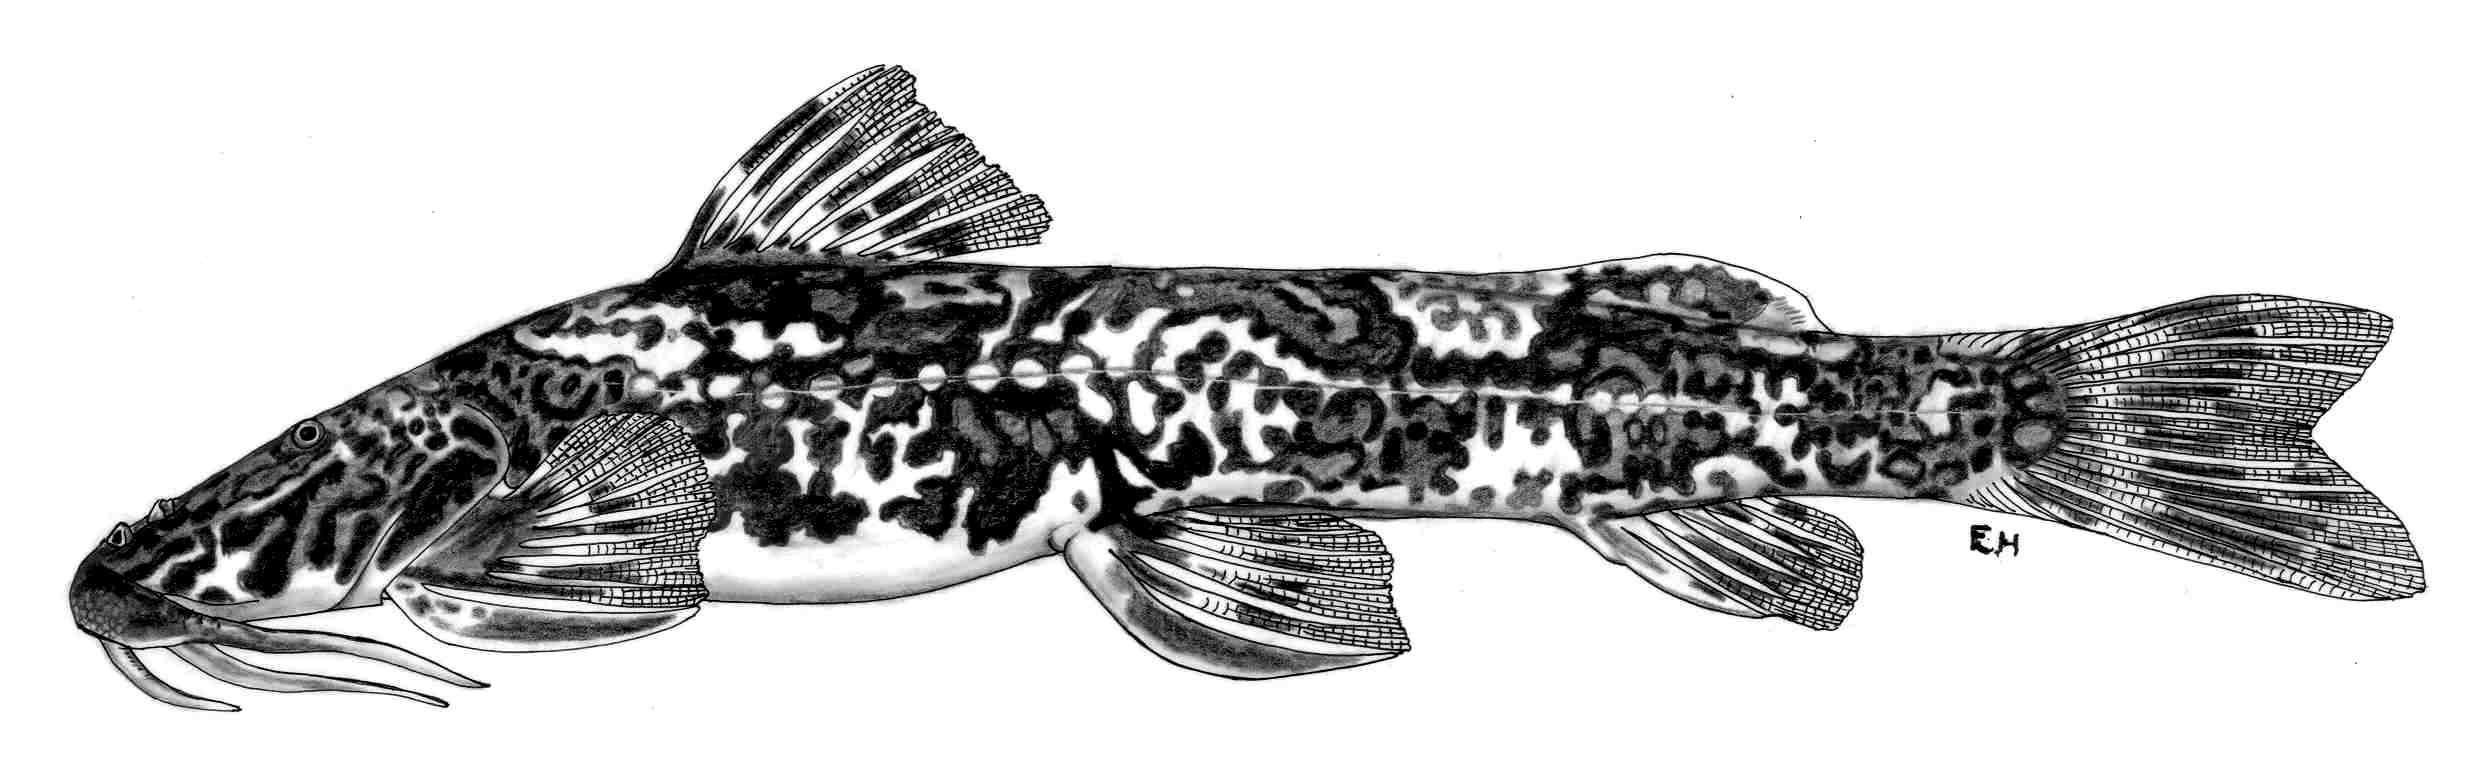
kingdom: Animalia
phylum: Chordata
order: Siluriformes
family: Amphiliidae
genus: Amphilius
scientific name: Amphilius longirostris
